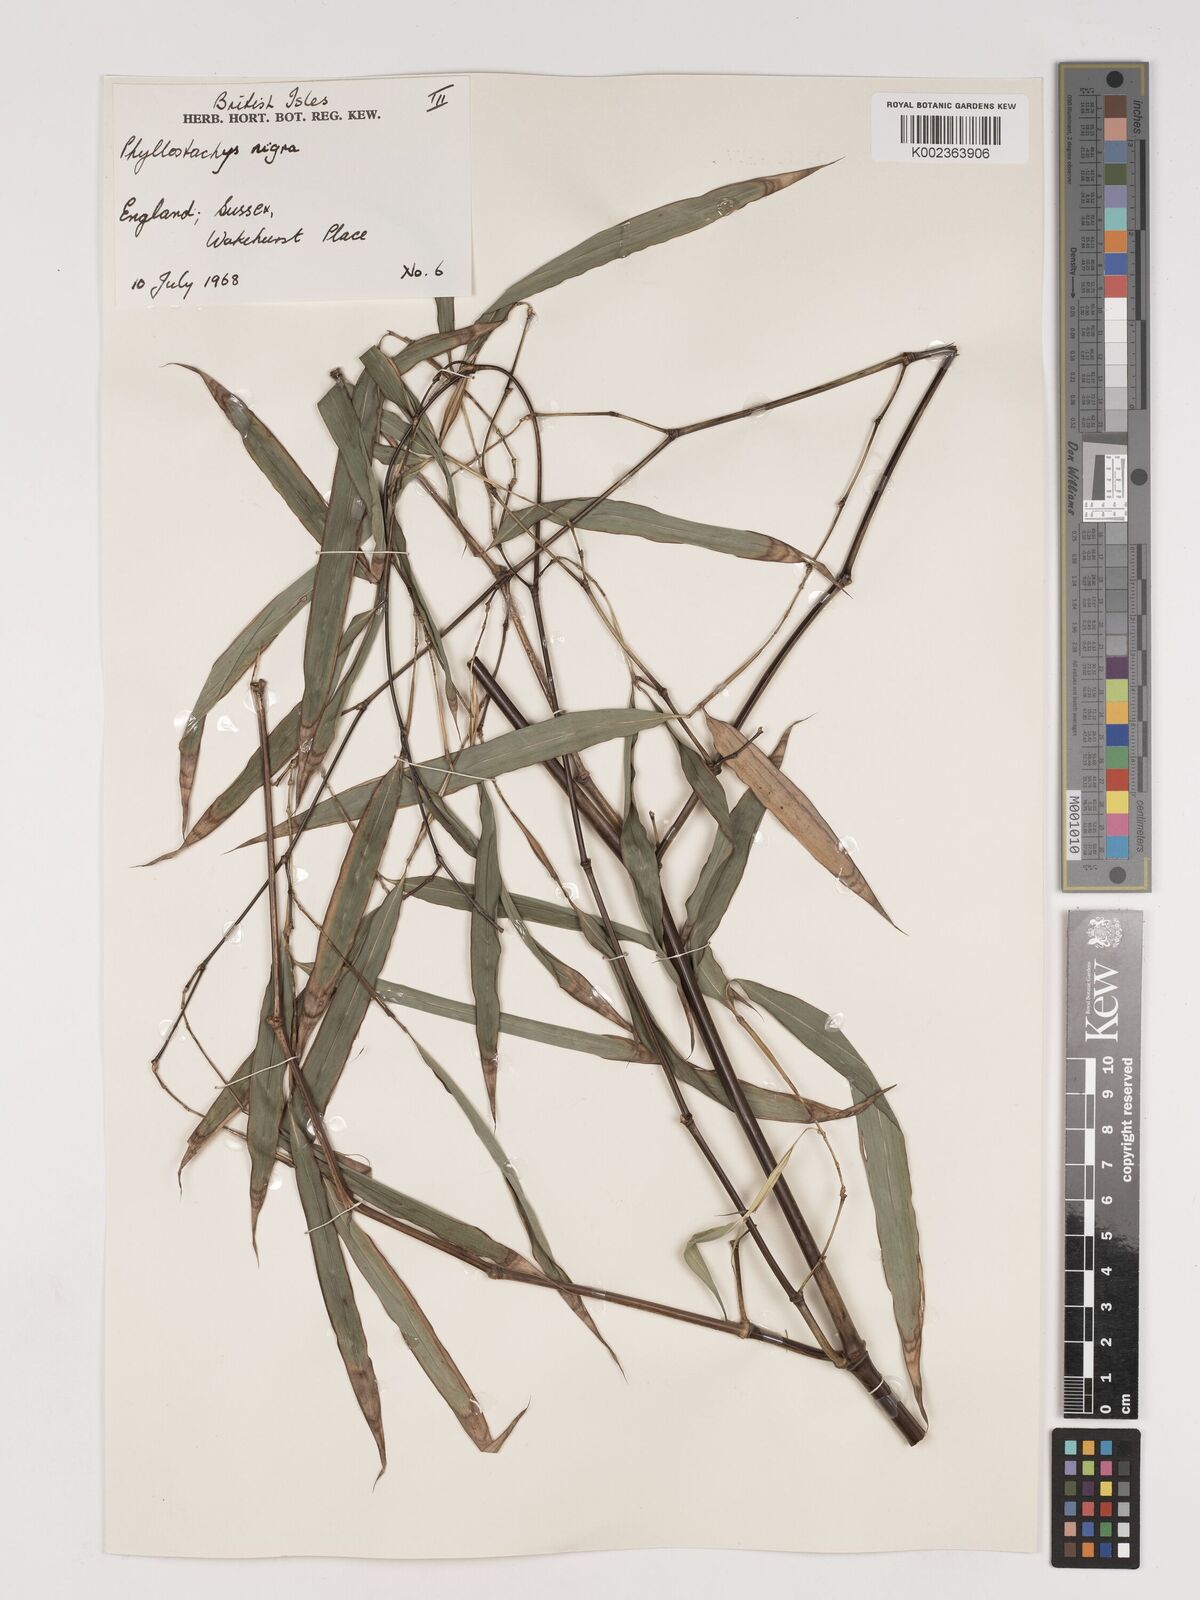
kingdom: Plantae
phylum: Tracheophyta
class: Liliopsida
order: Poales
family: Poaceae
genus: Phyllostachys
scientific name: Phyllostachys nigra
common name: Black bamboo
